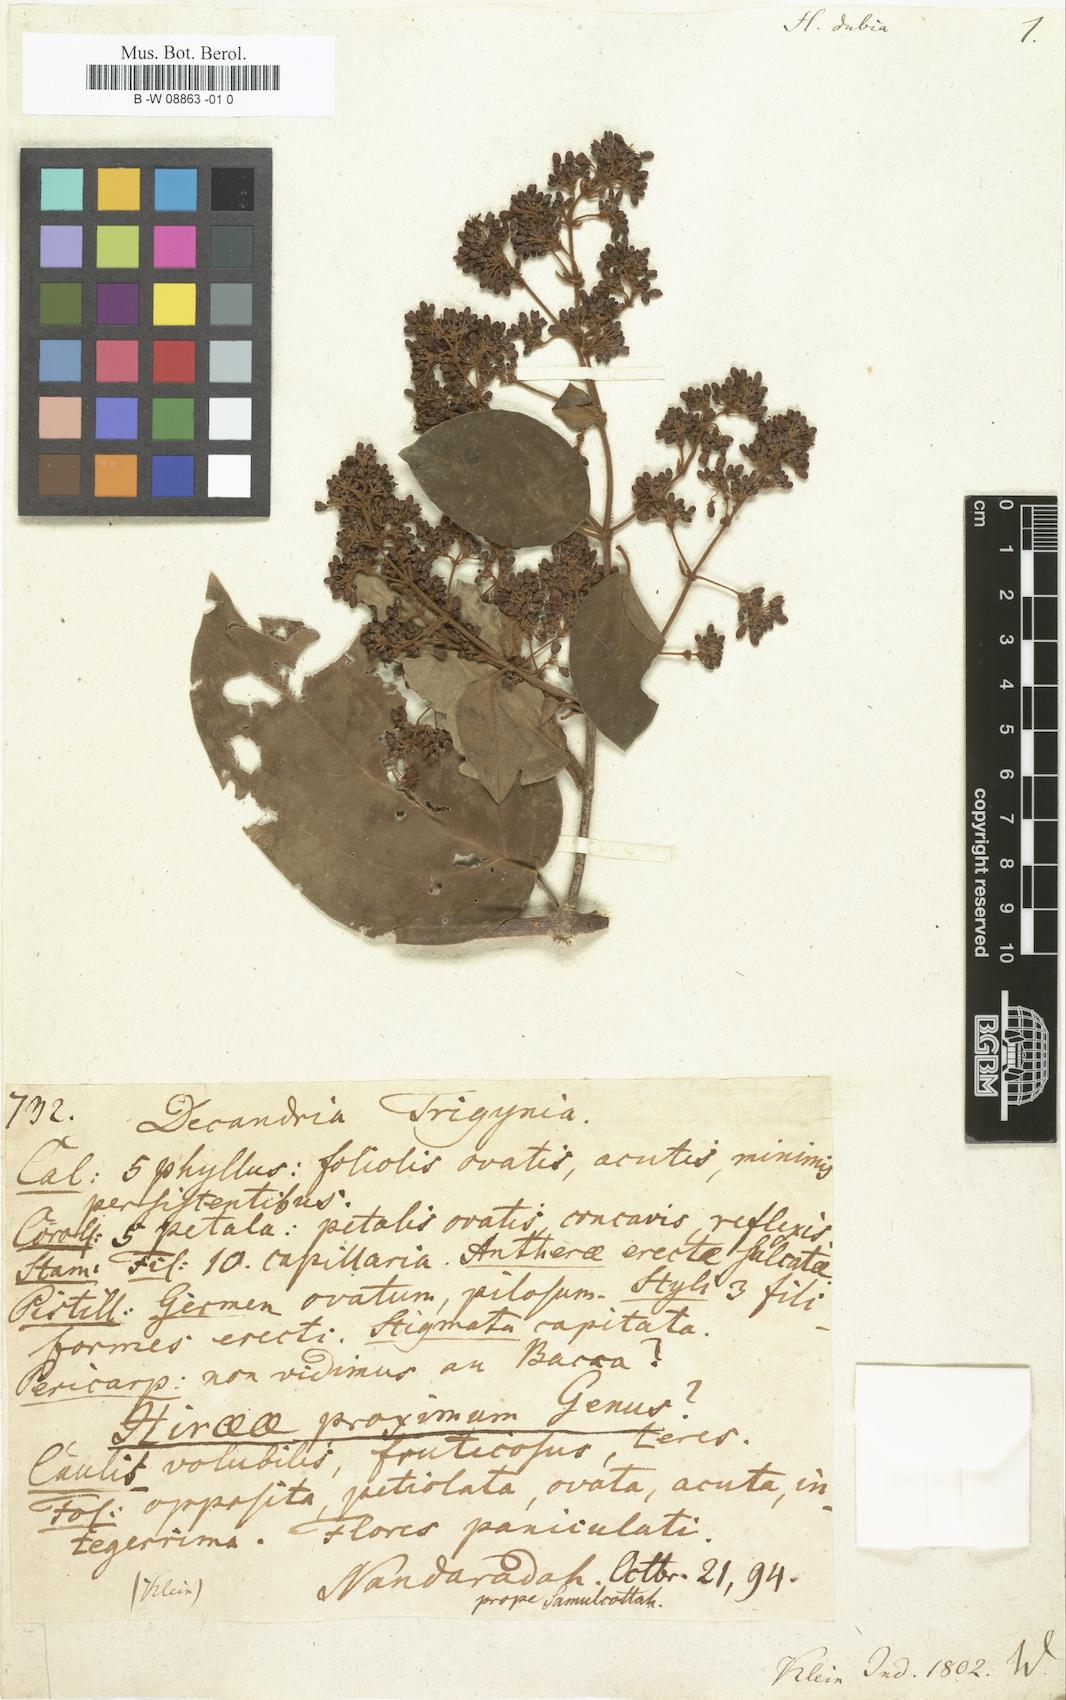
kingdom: Plantae
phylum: Tracheophyta
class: Magnoliopsida
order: Malpighiales
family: Malpighiaceae
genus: Hiraea
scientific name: Hiraea
